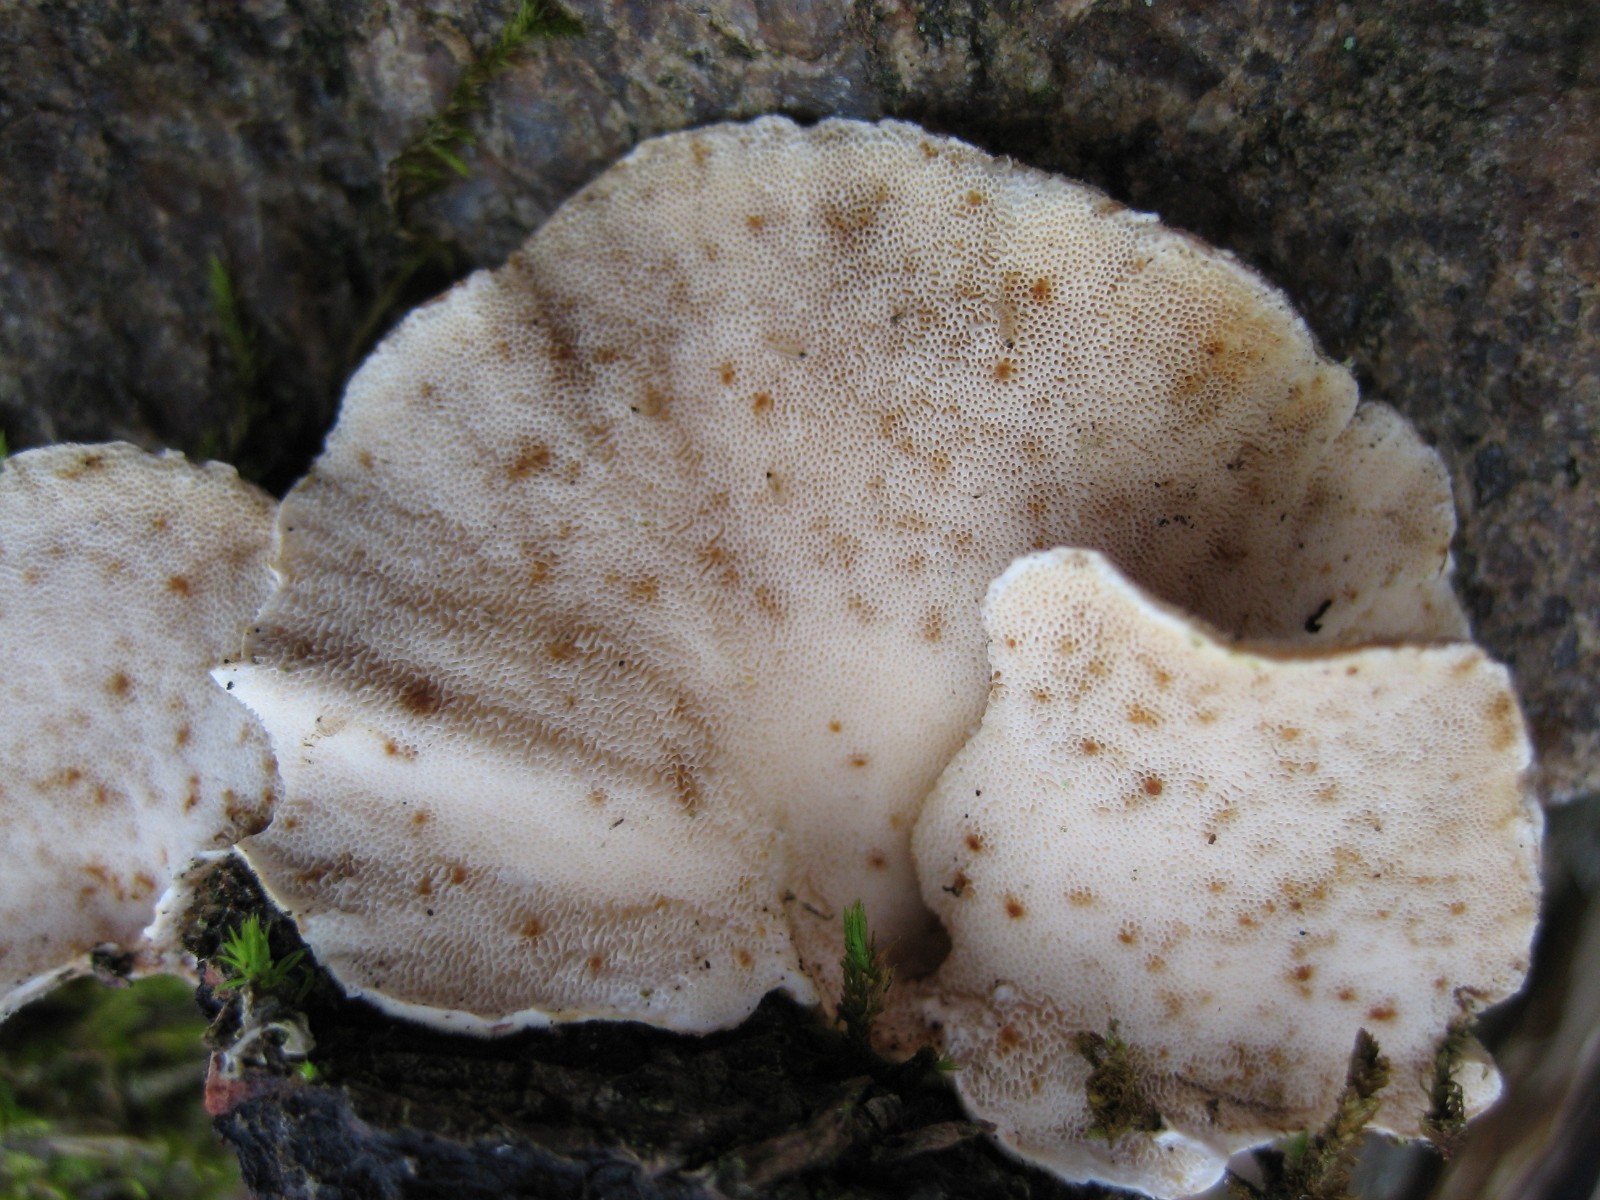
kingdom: Fungi
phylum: Basidiomycota
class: Agaricomycetes
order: Polyporales
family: Polyporaceae
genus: Trametes
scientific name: Trametes versicolor
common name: broget læderporesvamp
